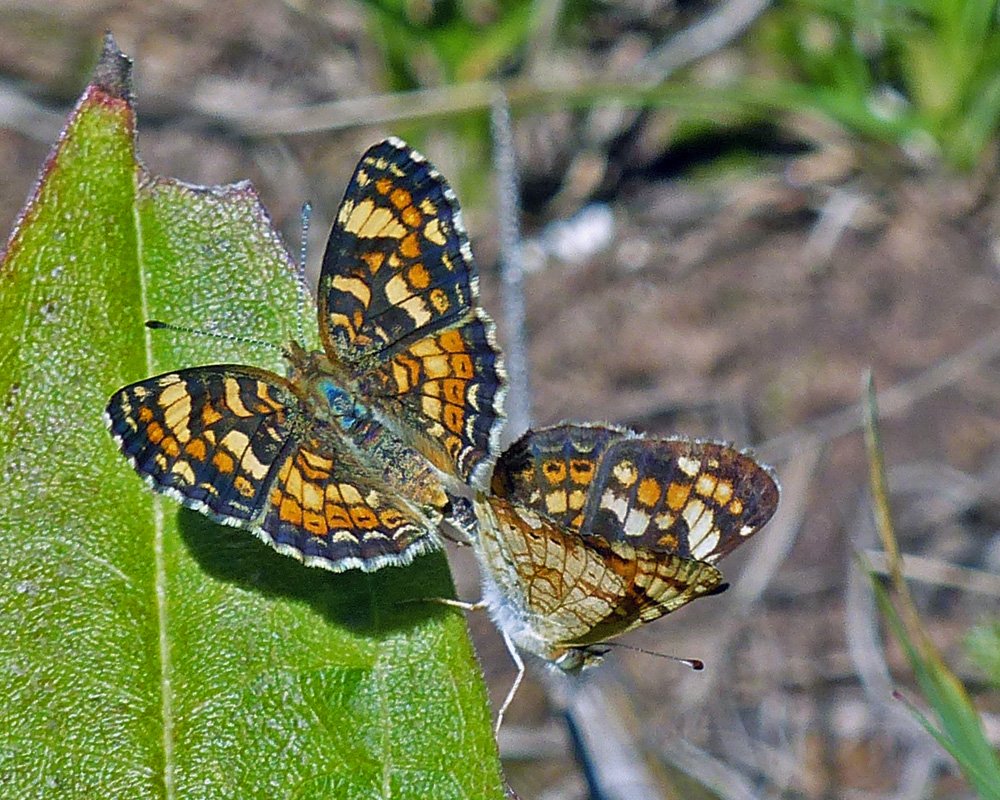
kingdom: Animalia
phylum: Arthropoda
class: Insecta
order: Lepidoptera
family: Nymphalidae
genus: Phyciodes
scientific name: Phyciodes tharos
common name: Field Crescent
